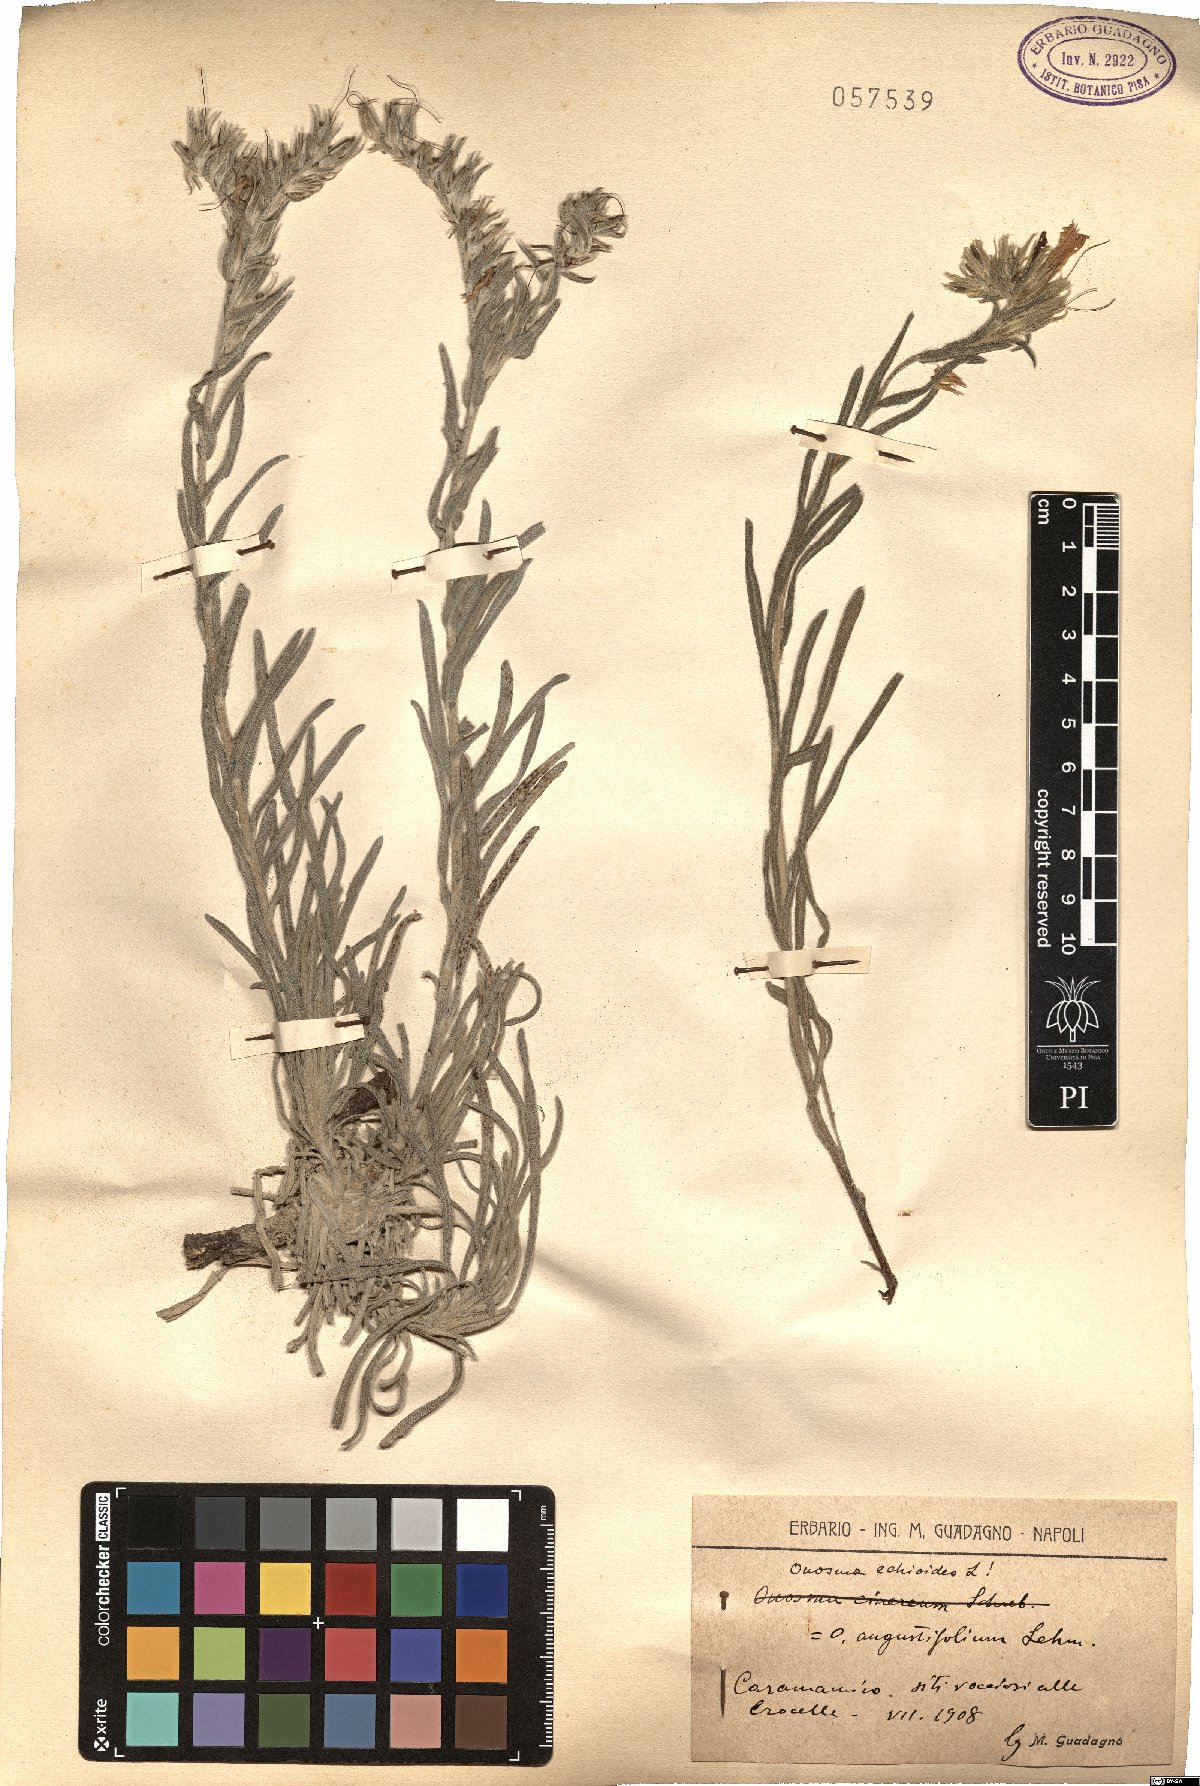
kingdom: Plantae
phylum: Tracheophyta
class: Magnoliopsida
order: Boraginales
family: Boraginaceae
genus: Onosma
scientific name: Onosma echioides
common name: Goldendrop
